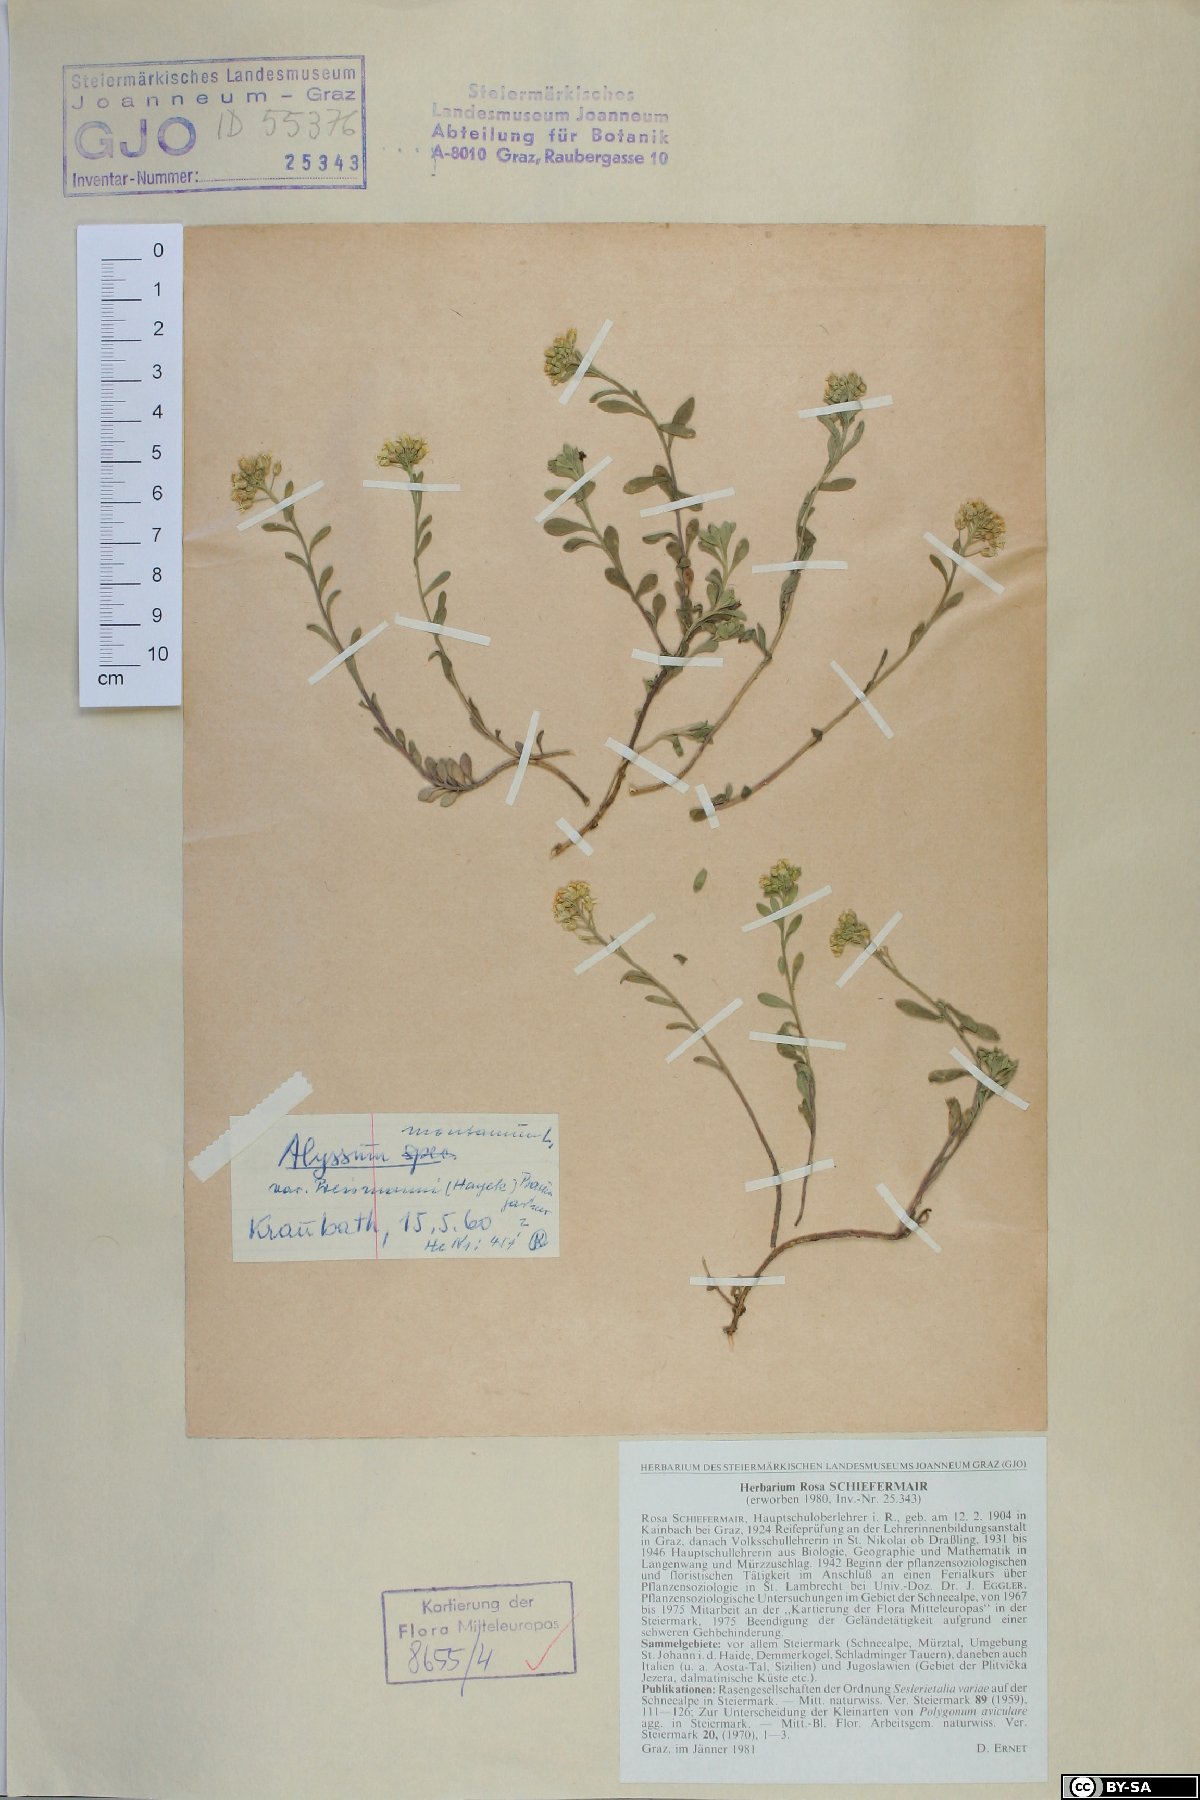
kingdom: Plantae
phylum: Tracheophyta
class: Magnoliopsida
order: Brassicales
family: Brassicaceae
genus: Alyssum
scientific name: Alyssum gmelinii
